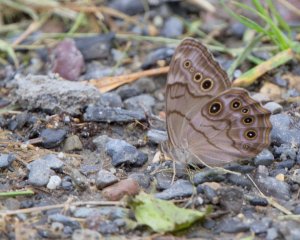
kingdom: Animalia
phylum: Arthropoda
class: Insecta
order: Lepidoptera
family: Nymphalidae
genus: Lethe
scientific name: Lethe anthedon
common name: Northern Pearly-Eye
